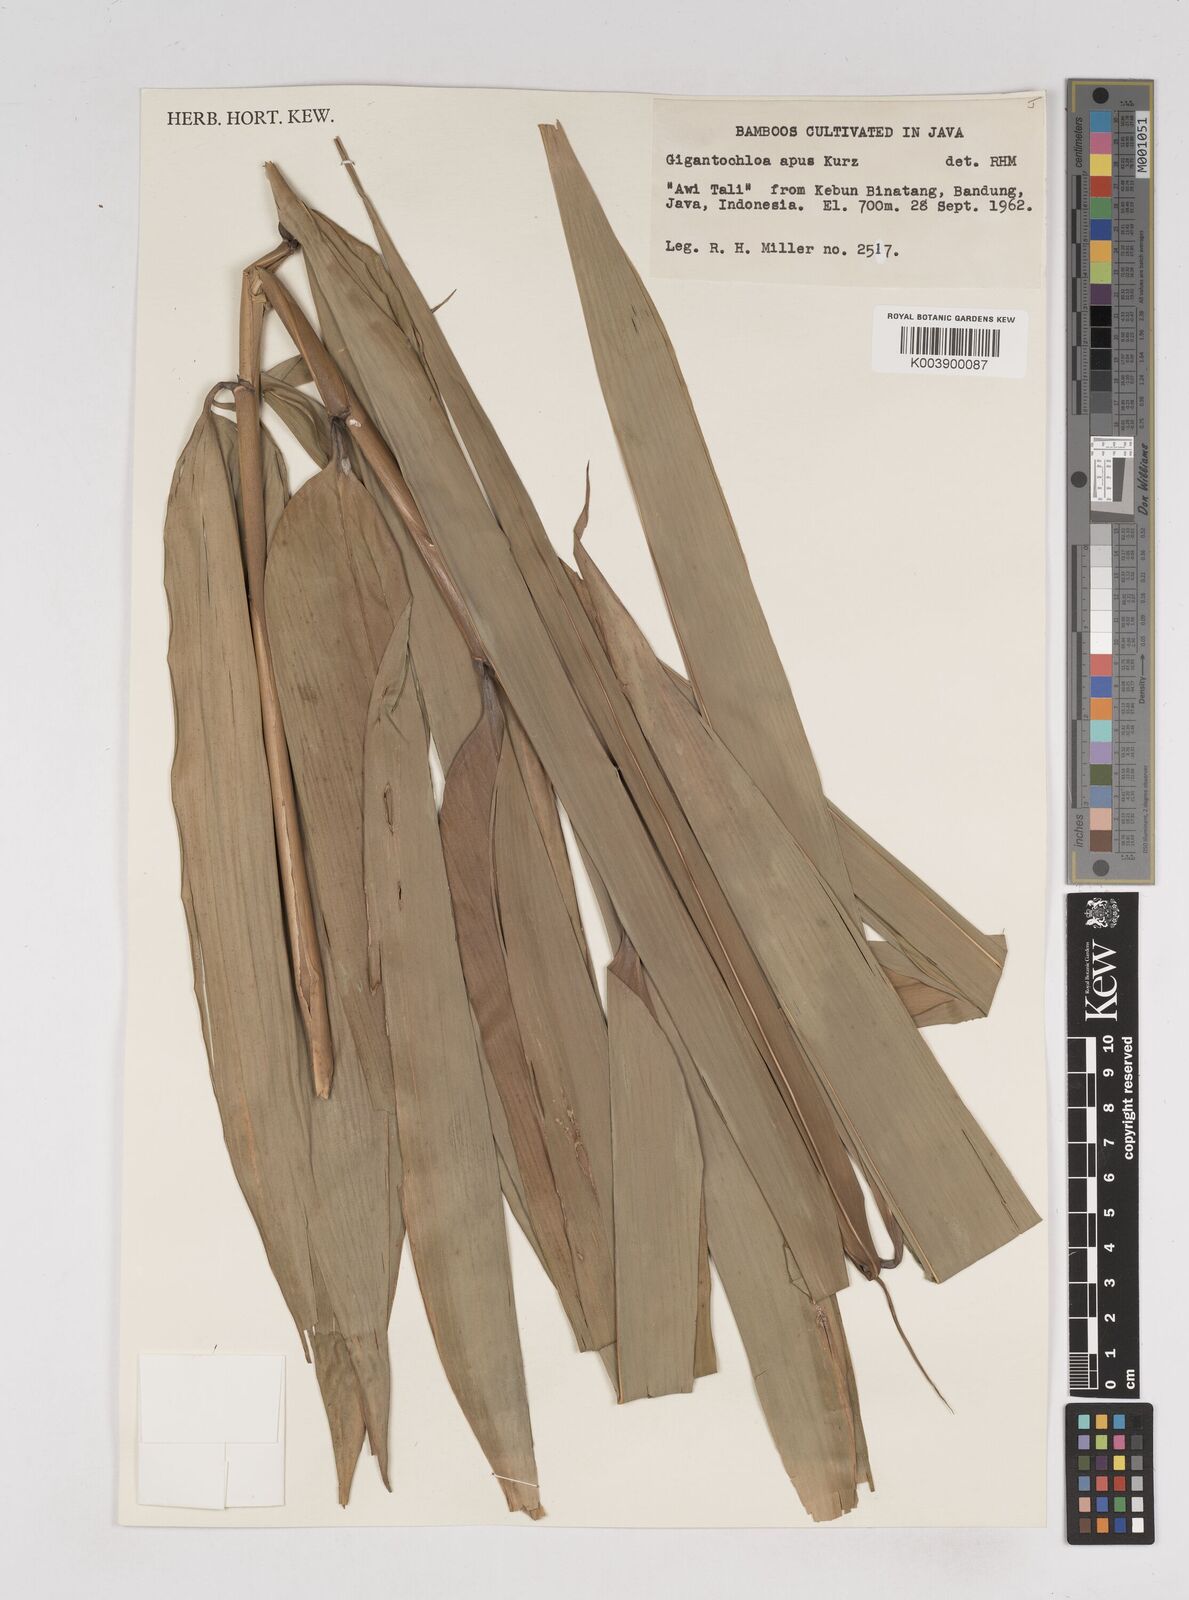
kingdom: Plantae
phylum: Tracheophyta
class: Liliopsida
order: Poales
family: Poaceae
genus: Gigantochloa
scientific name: Gigantochloa apus
